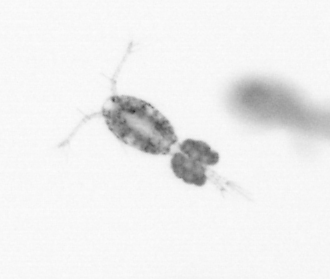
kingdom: Animalia
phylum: Arthropoda
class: Copepoda
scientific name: Copepoda
